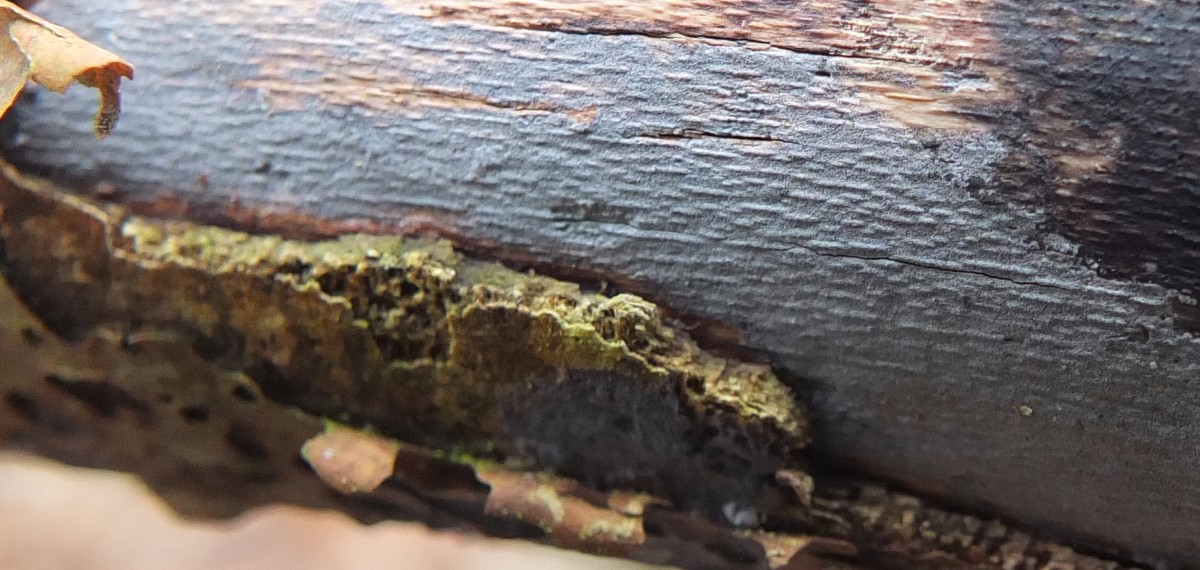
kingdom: Fungi
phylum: Basidiomycota
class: Agaricomycetes
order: Russulales
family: Peniophoraceae
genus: Peniophora
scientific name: Peniophora lycii
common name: grynet voksskind
